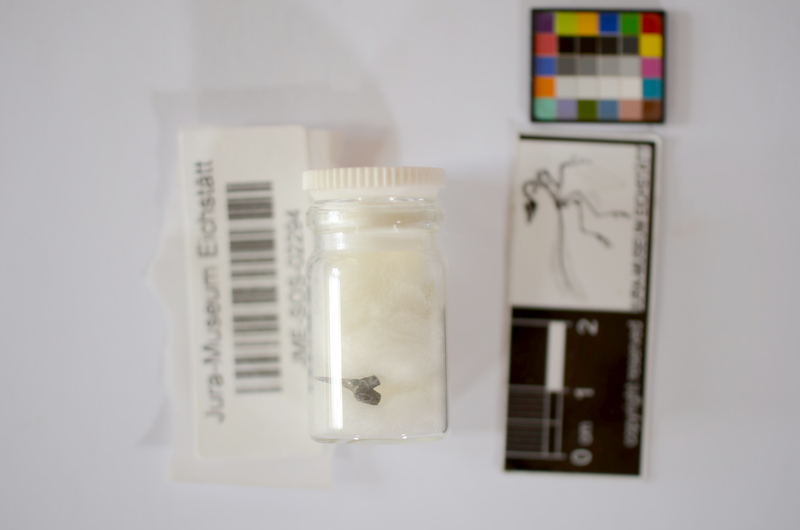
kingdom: Animalia
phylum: Chordata
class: Elasmobranchii
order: Orectolobiformes
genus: Palaeocarcharias
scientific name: Palaeocarcharias stromeri
